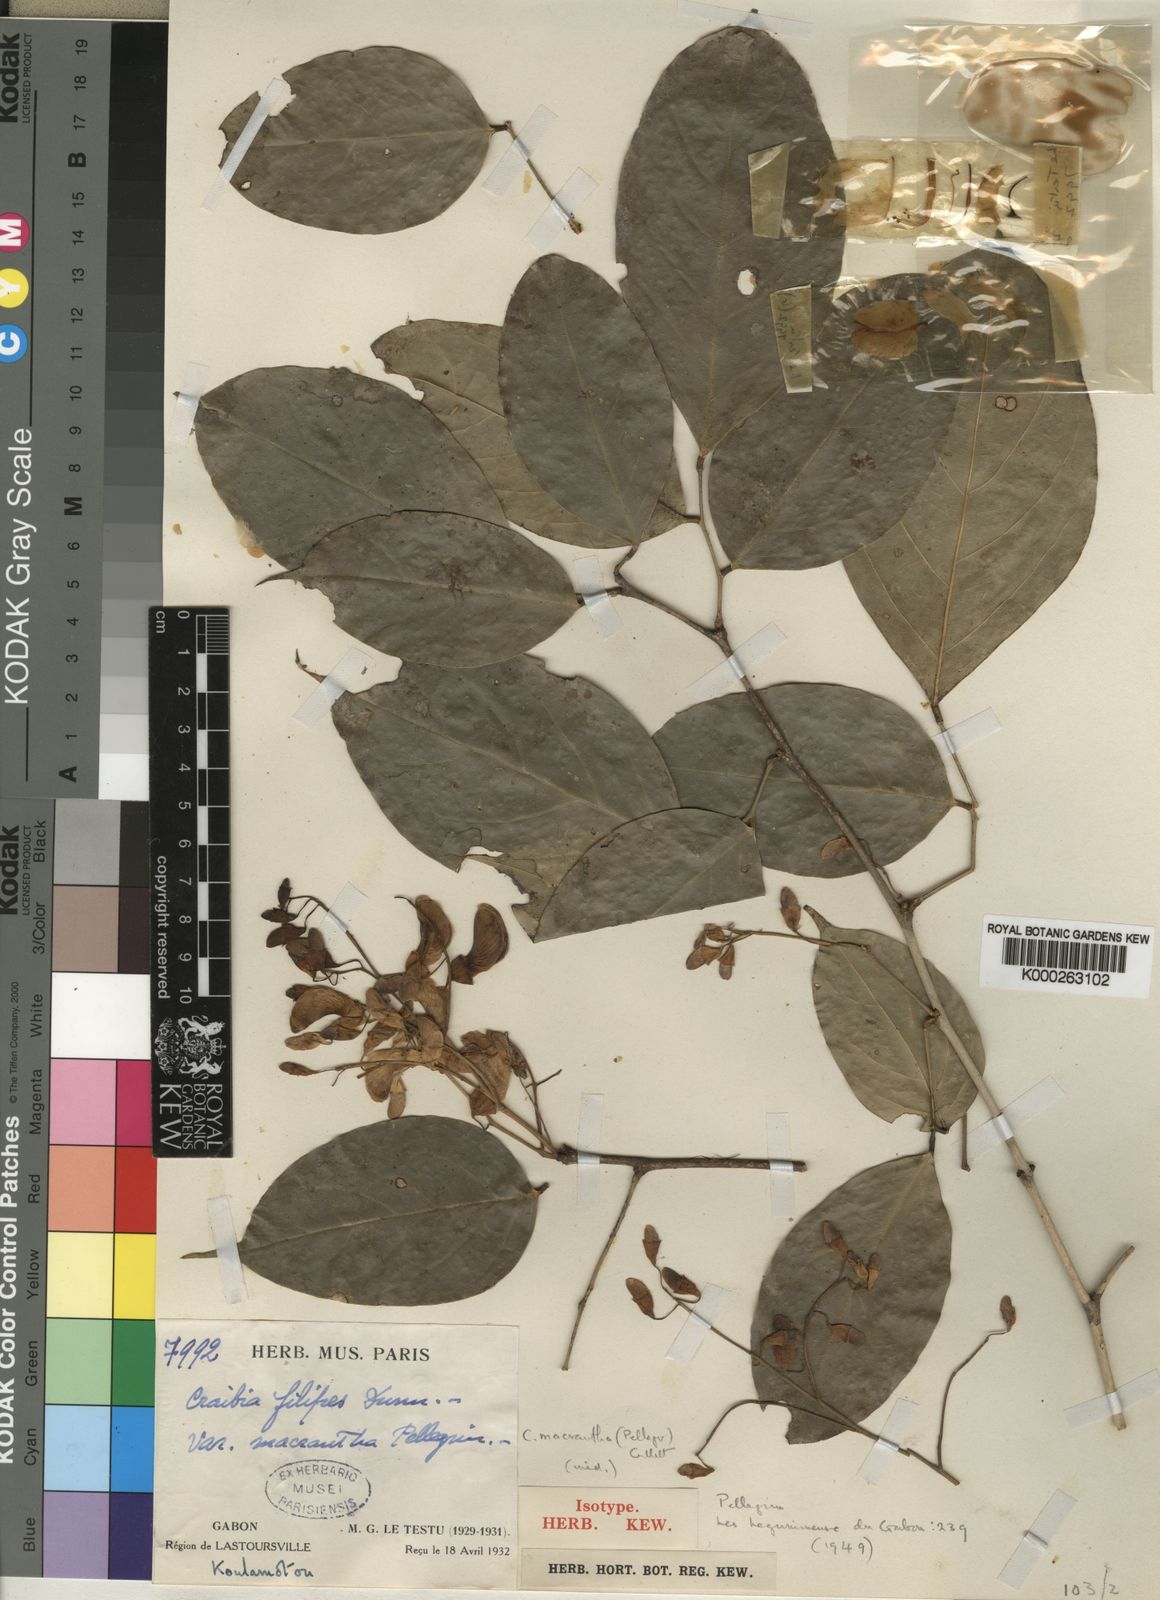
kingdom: Plantae
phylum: Tracheophyta
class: Magnoliopsida
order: Fabales
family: Fabaceae
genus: Craibia
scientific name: Craibia zimmermannii
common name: Sandforest pea-wood
